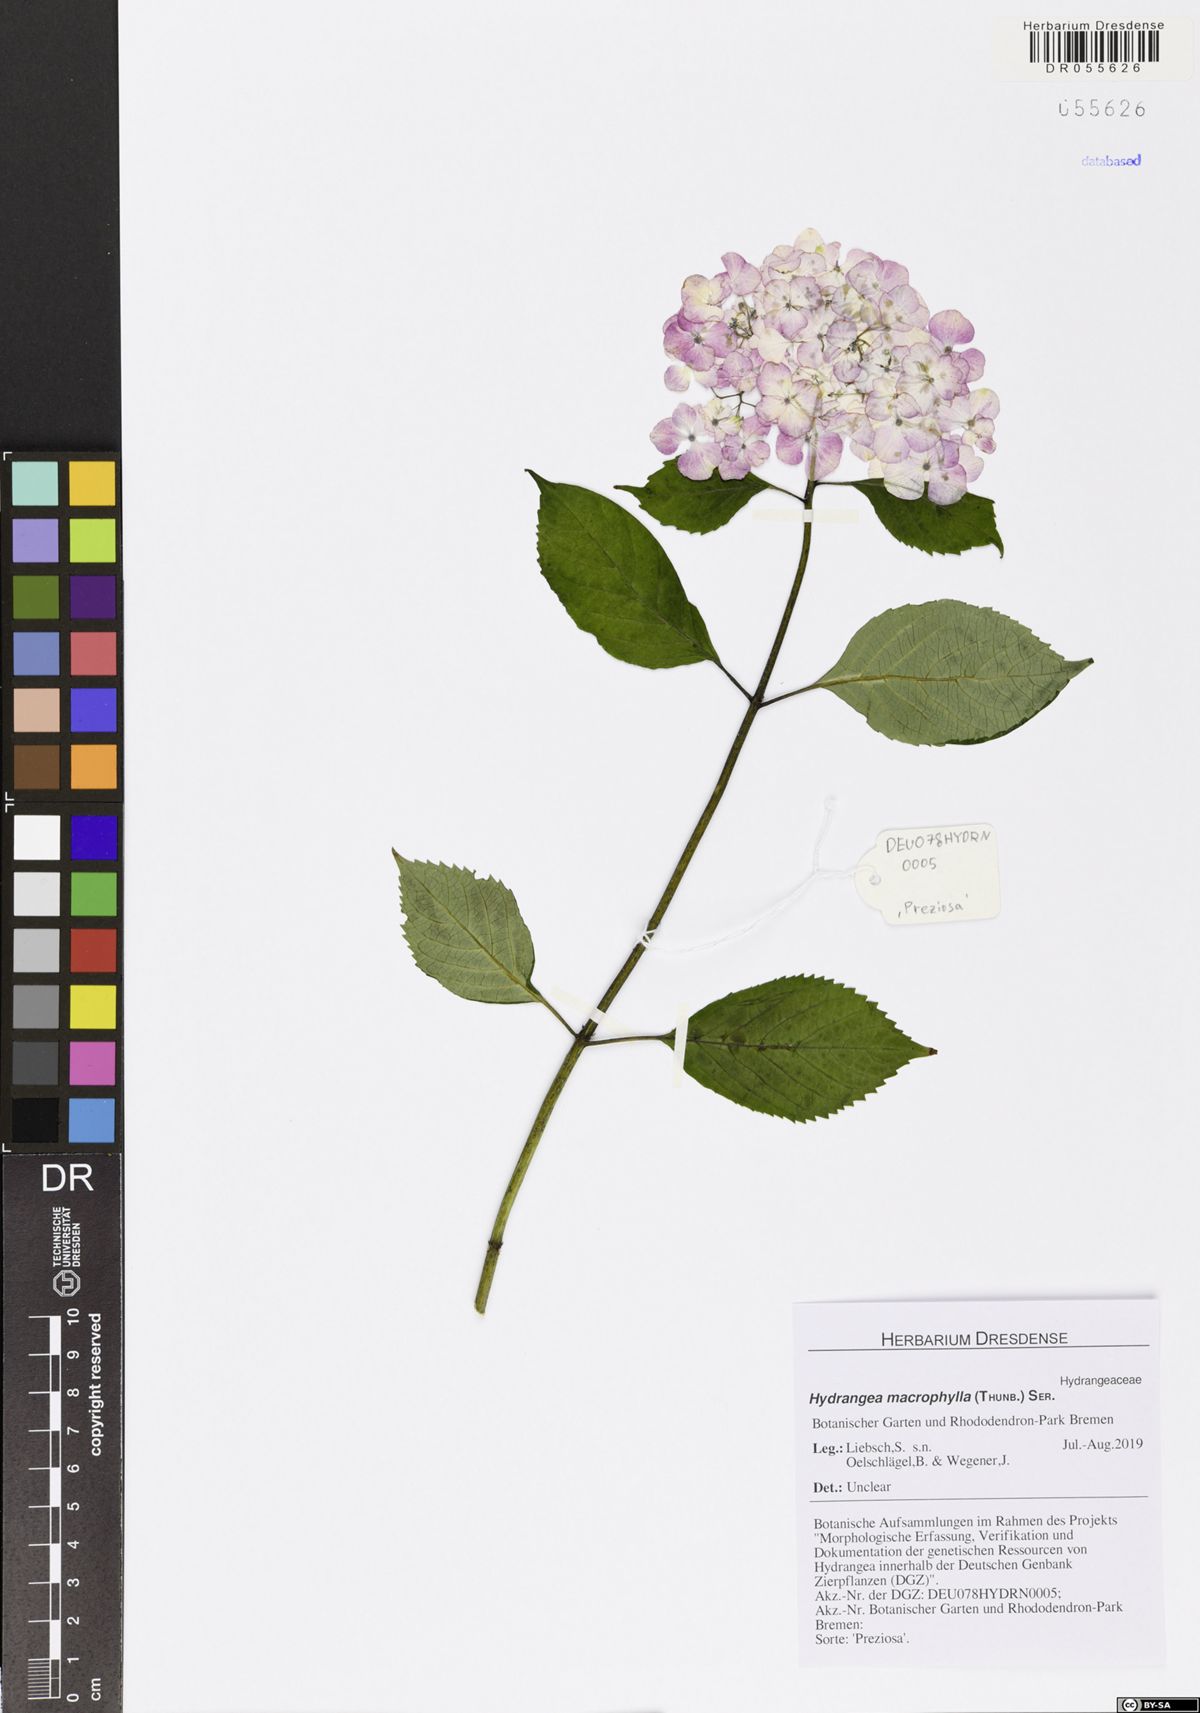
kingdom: Plantae
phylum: Tracheophyta
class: Magnoliopsida
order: Cornales
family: Hydrangeaceae
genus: Hydrangea
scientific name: Hydrangea macrophylla
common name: Hydrangea
